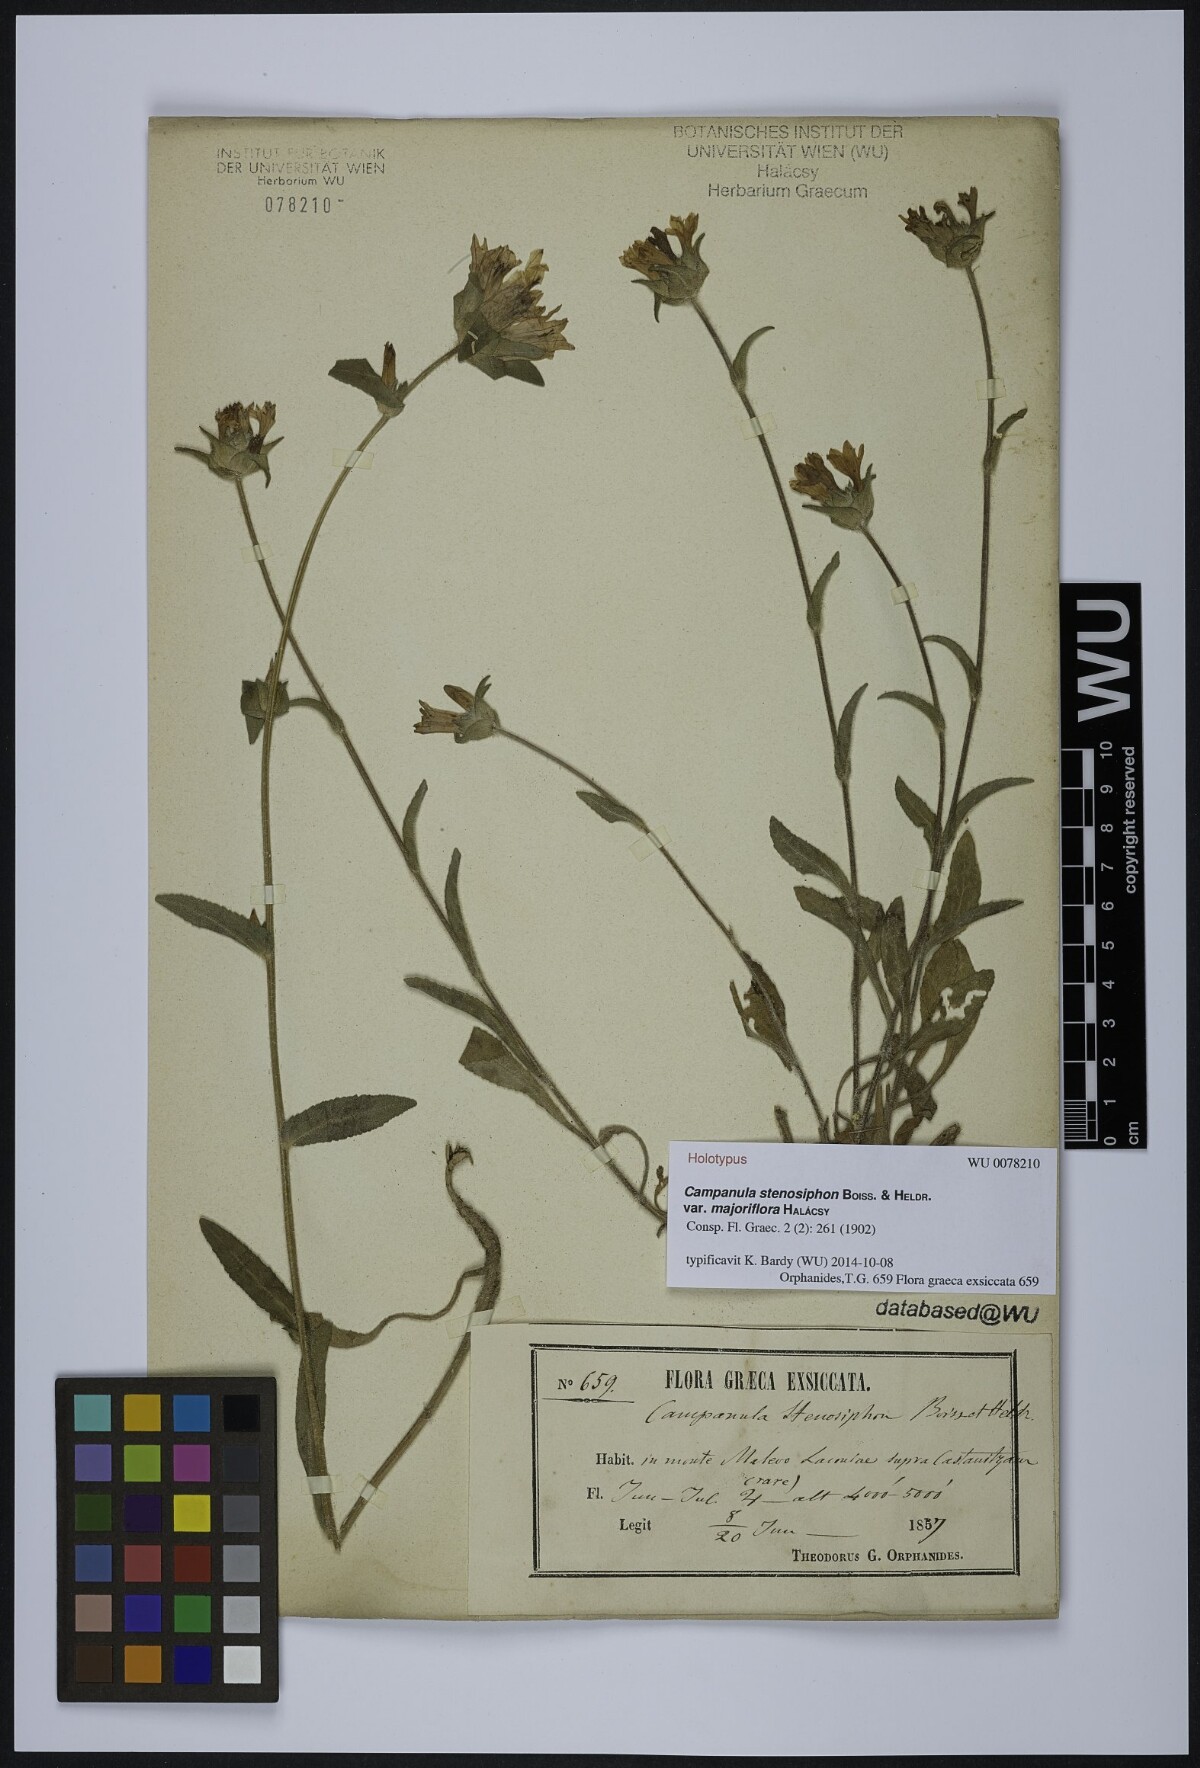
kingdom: Plantae
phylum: Tracheophyta
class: Magnoliopsida
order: Asterales
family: Campanulaceae
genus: Campanula
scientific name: Campanula stenosiphon
